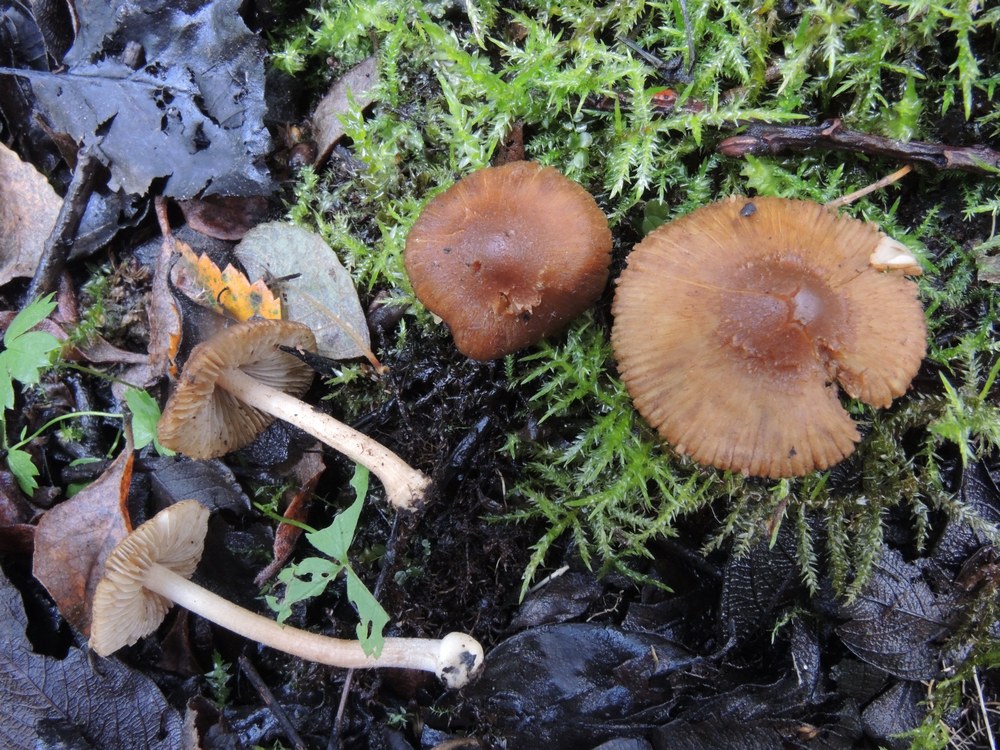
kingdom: Fungi
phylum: Basidiomycota
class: Agaricomycetes
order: Agaricales
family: Inocybaceae
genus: Inocybe
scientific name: Inocybe salicis
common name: pile-trævlhat
